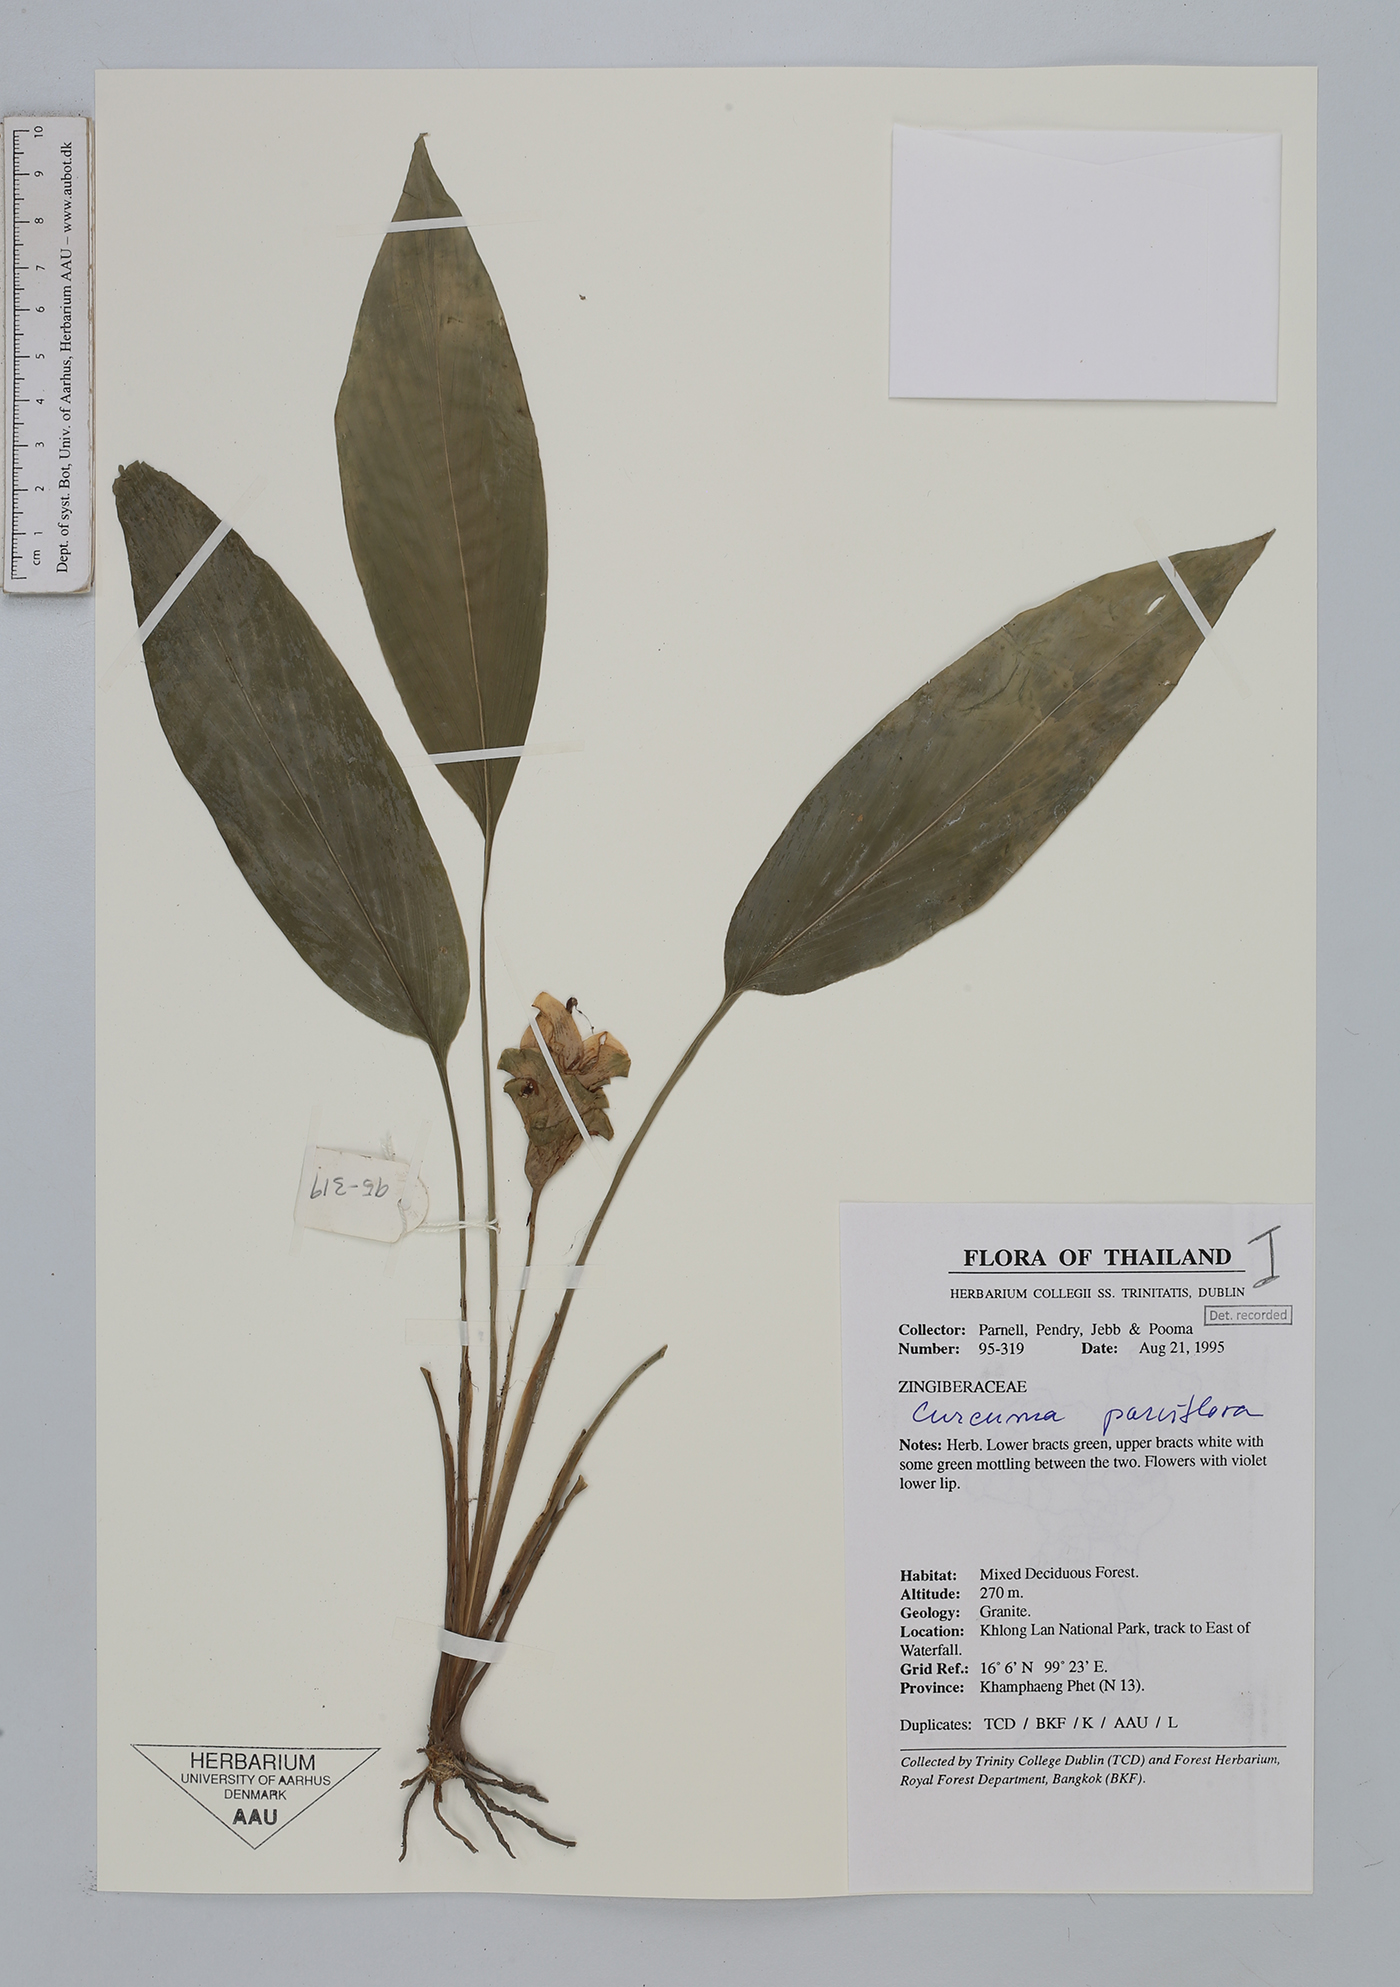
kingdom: Plantae
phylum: Tracheophyta
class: Liliopsida
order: Zingiberales
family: Zingiberaceae
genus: Curcuma
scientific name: Curcuma parviflora
